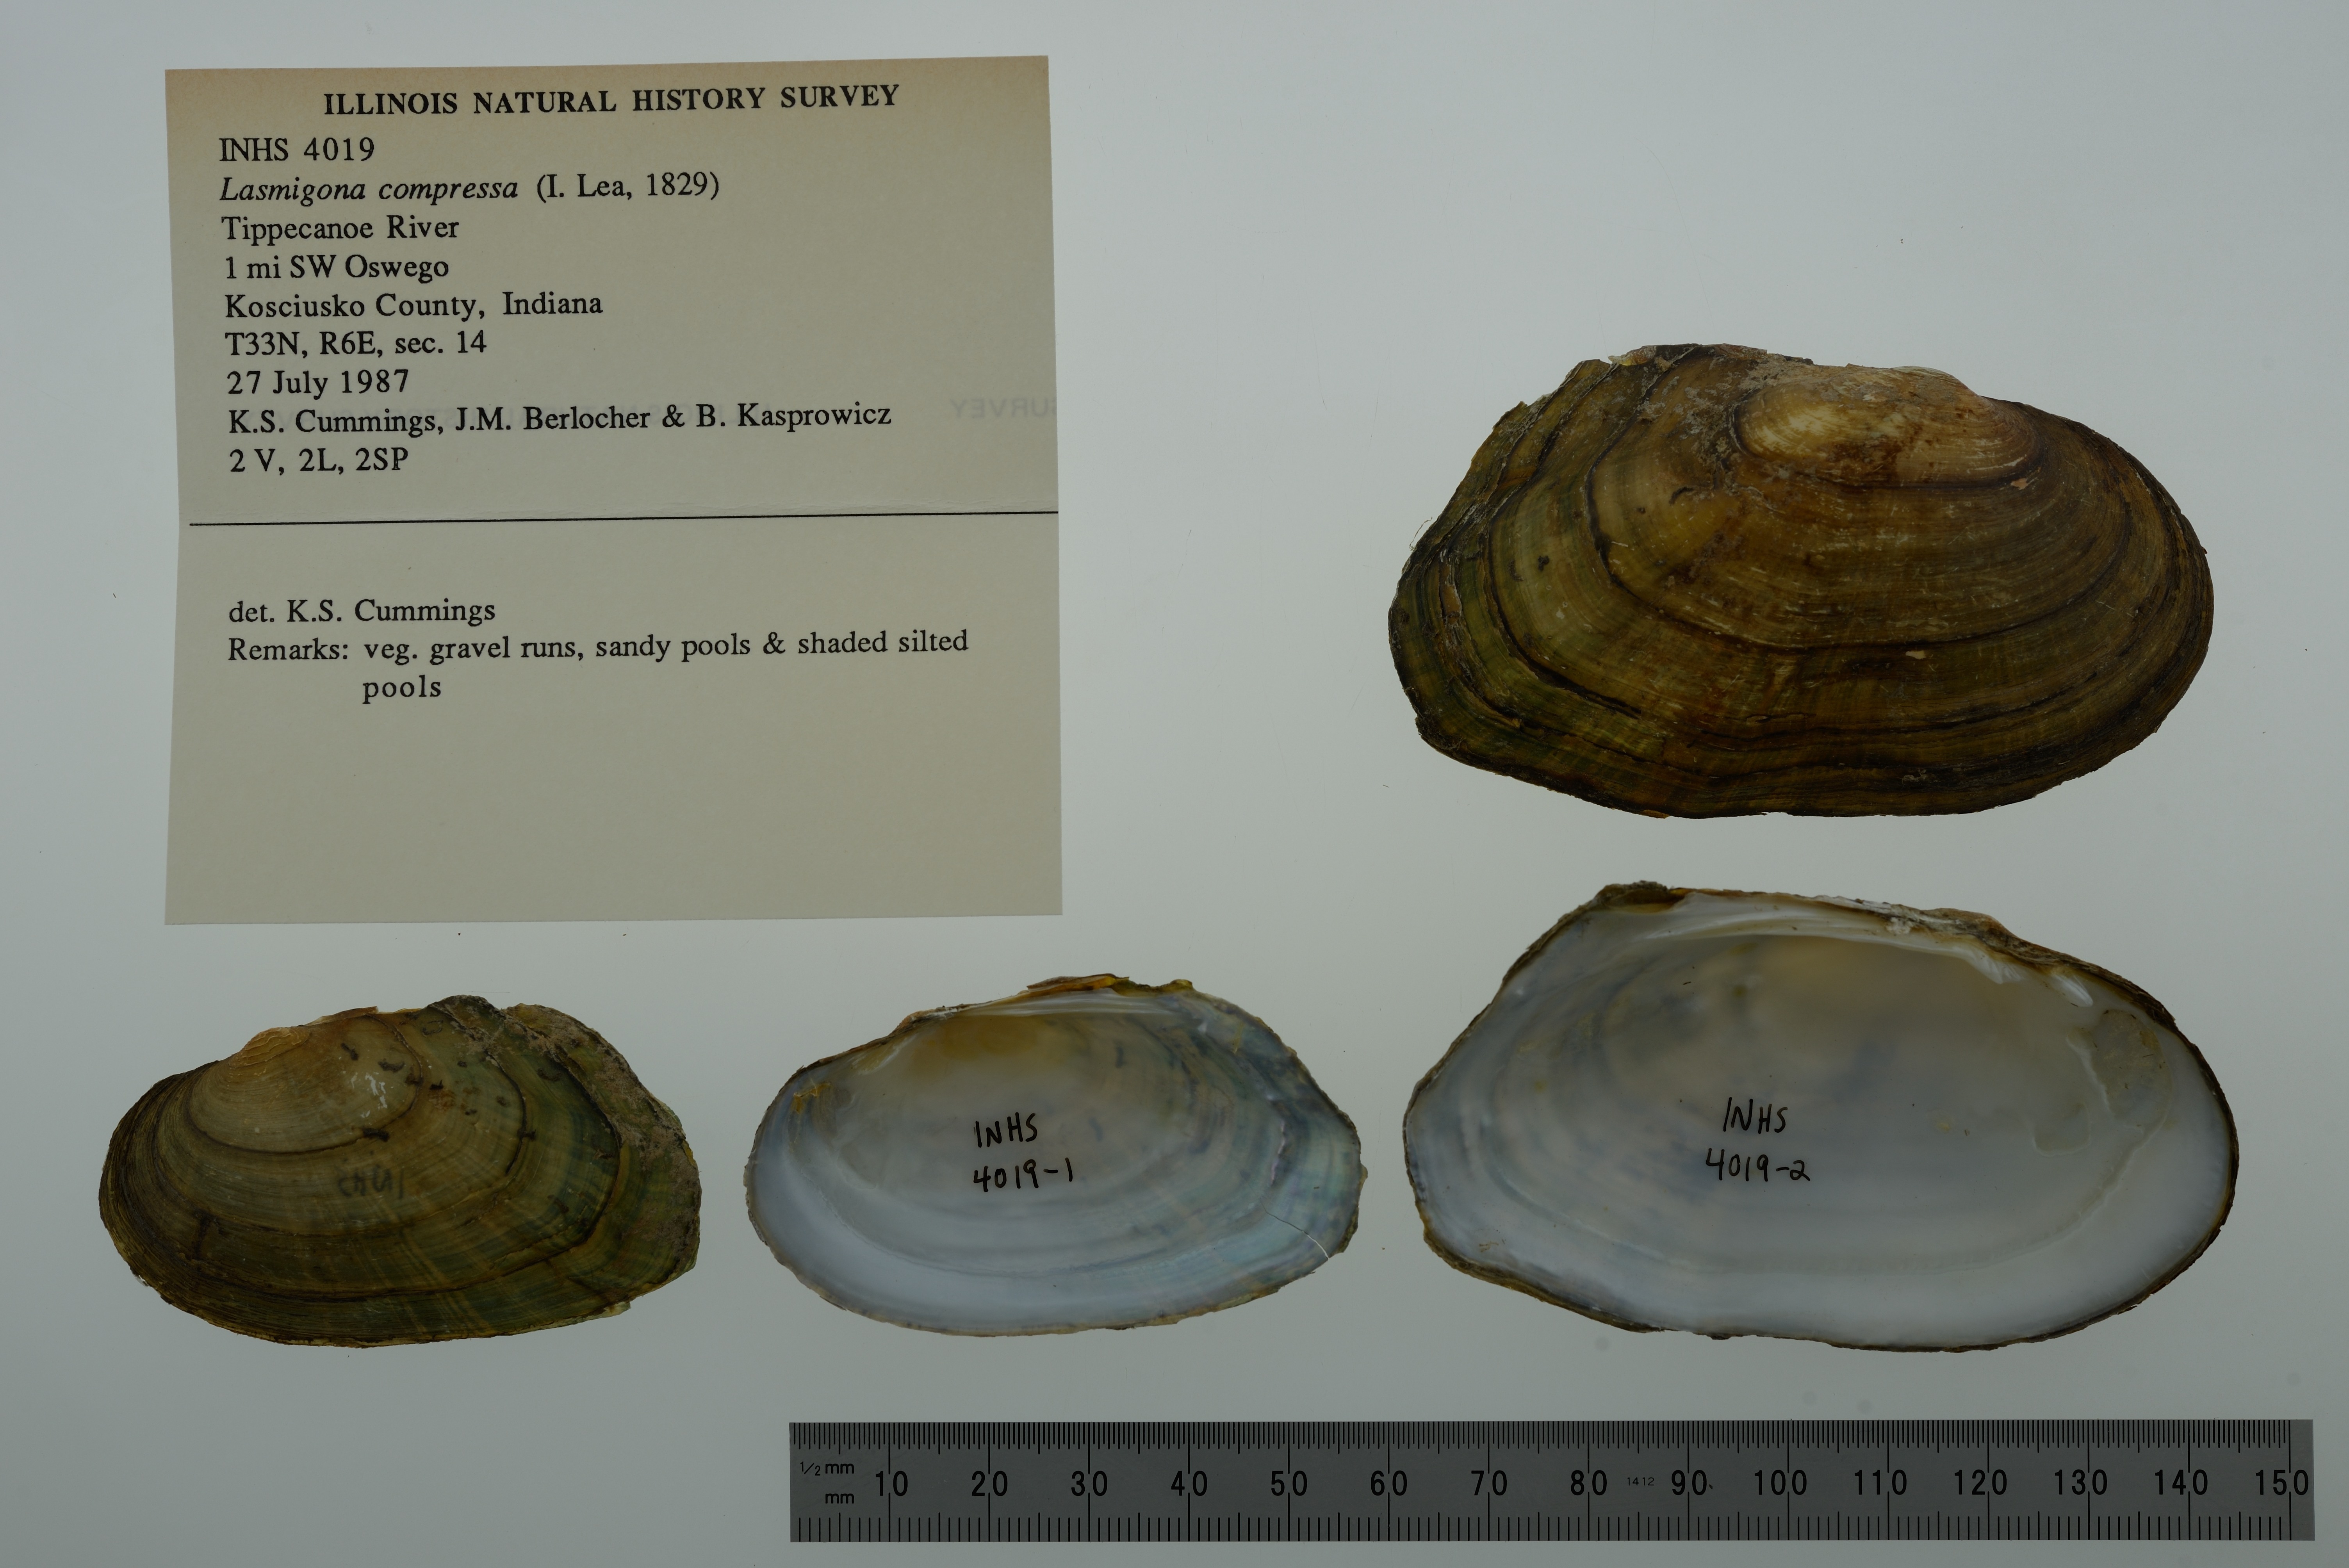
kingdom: Animalia
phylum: Mollusca
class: Bivalvia
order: Unionida
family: Unionidae
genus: Lasmigona
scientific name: Lasmigona compressa
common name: Creek heelsplitter
